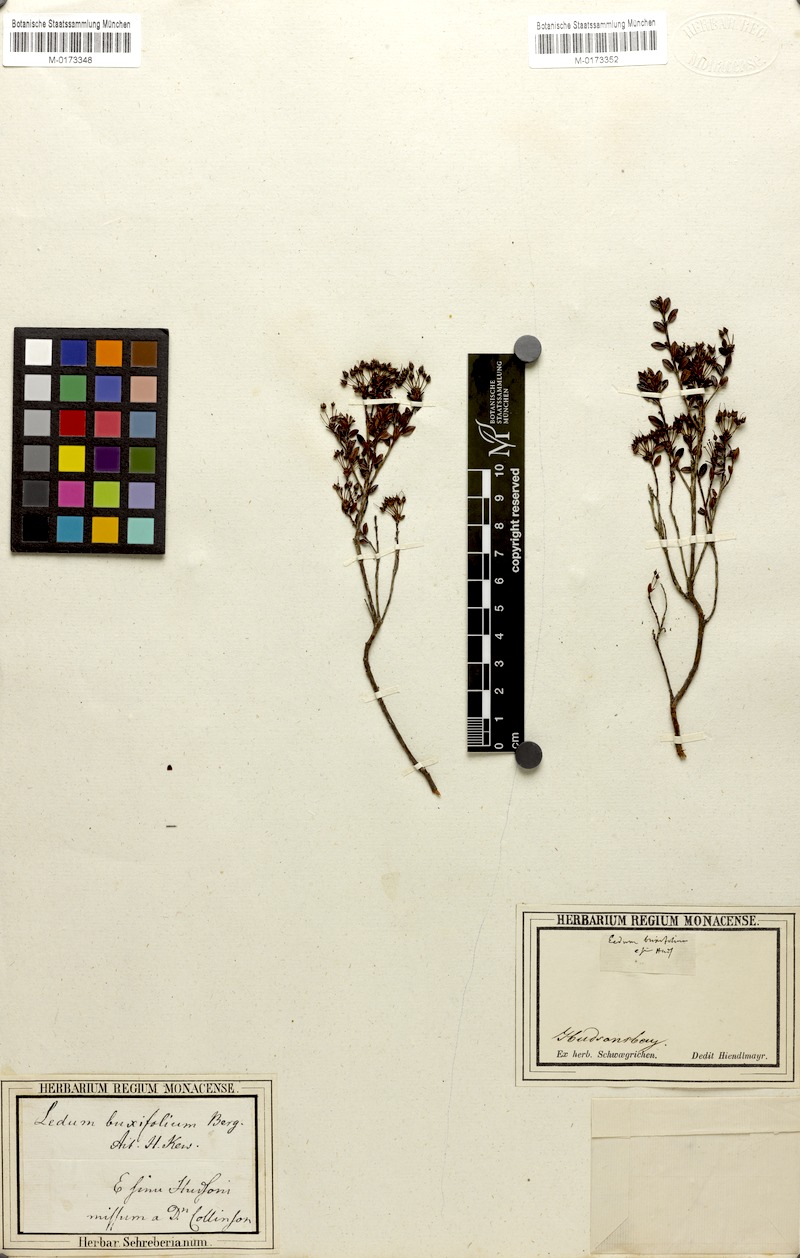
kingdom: Plantae
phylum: Tracheophyta
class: Magnoliopsida
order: Ericales
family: Ericaceae
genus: Kalmia
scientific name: Kalmia buxifolia
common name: Sandmyrtle
